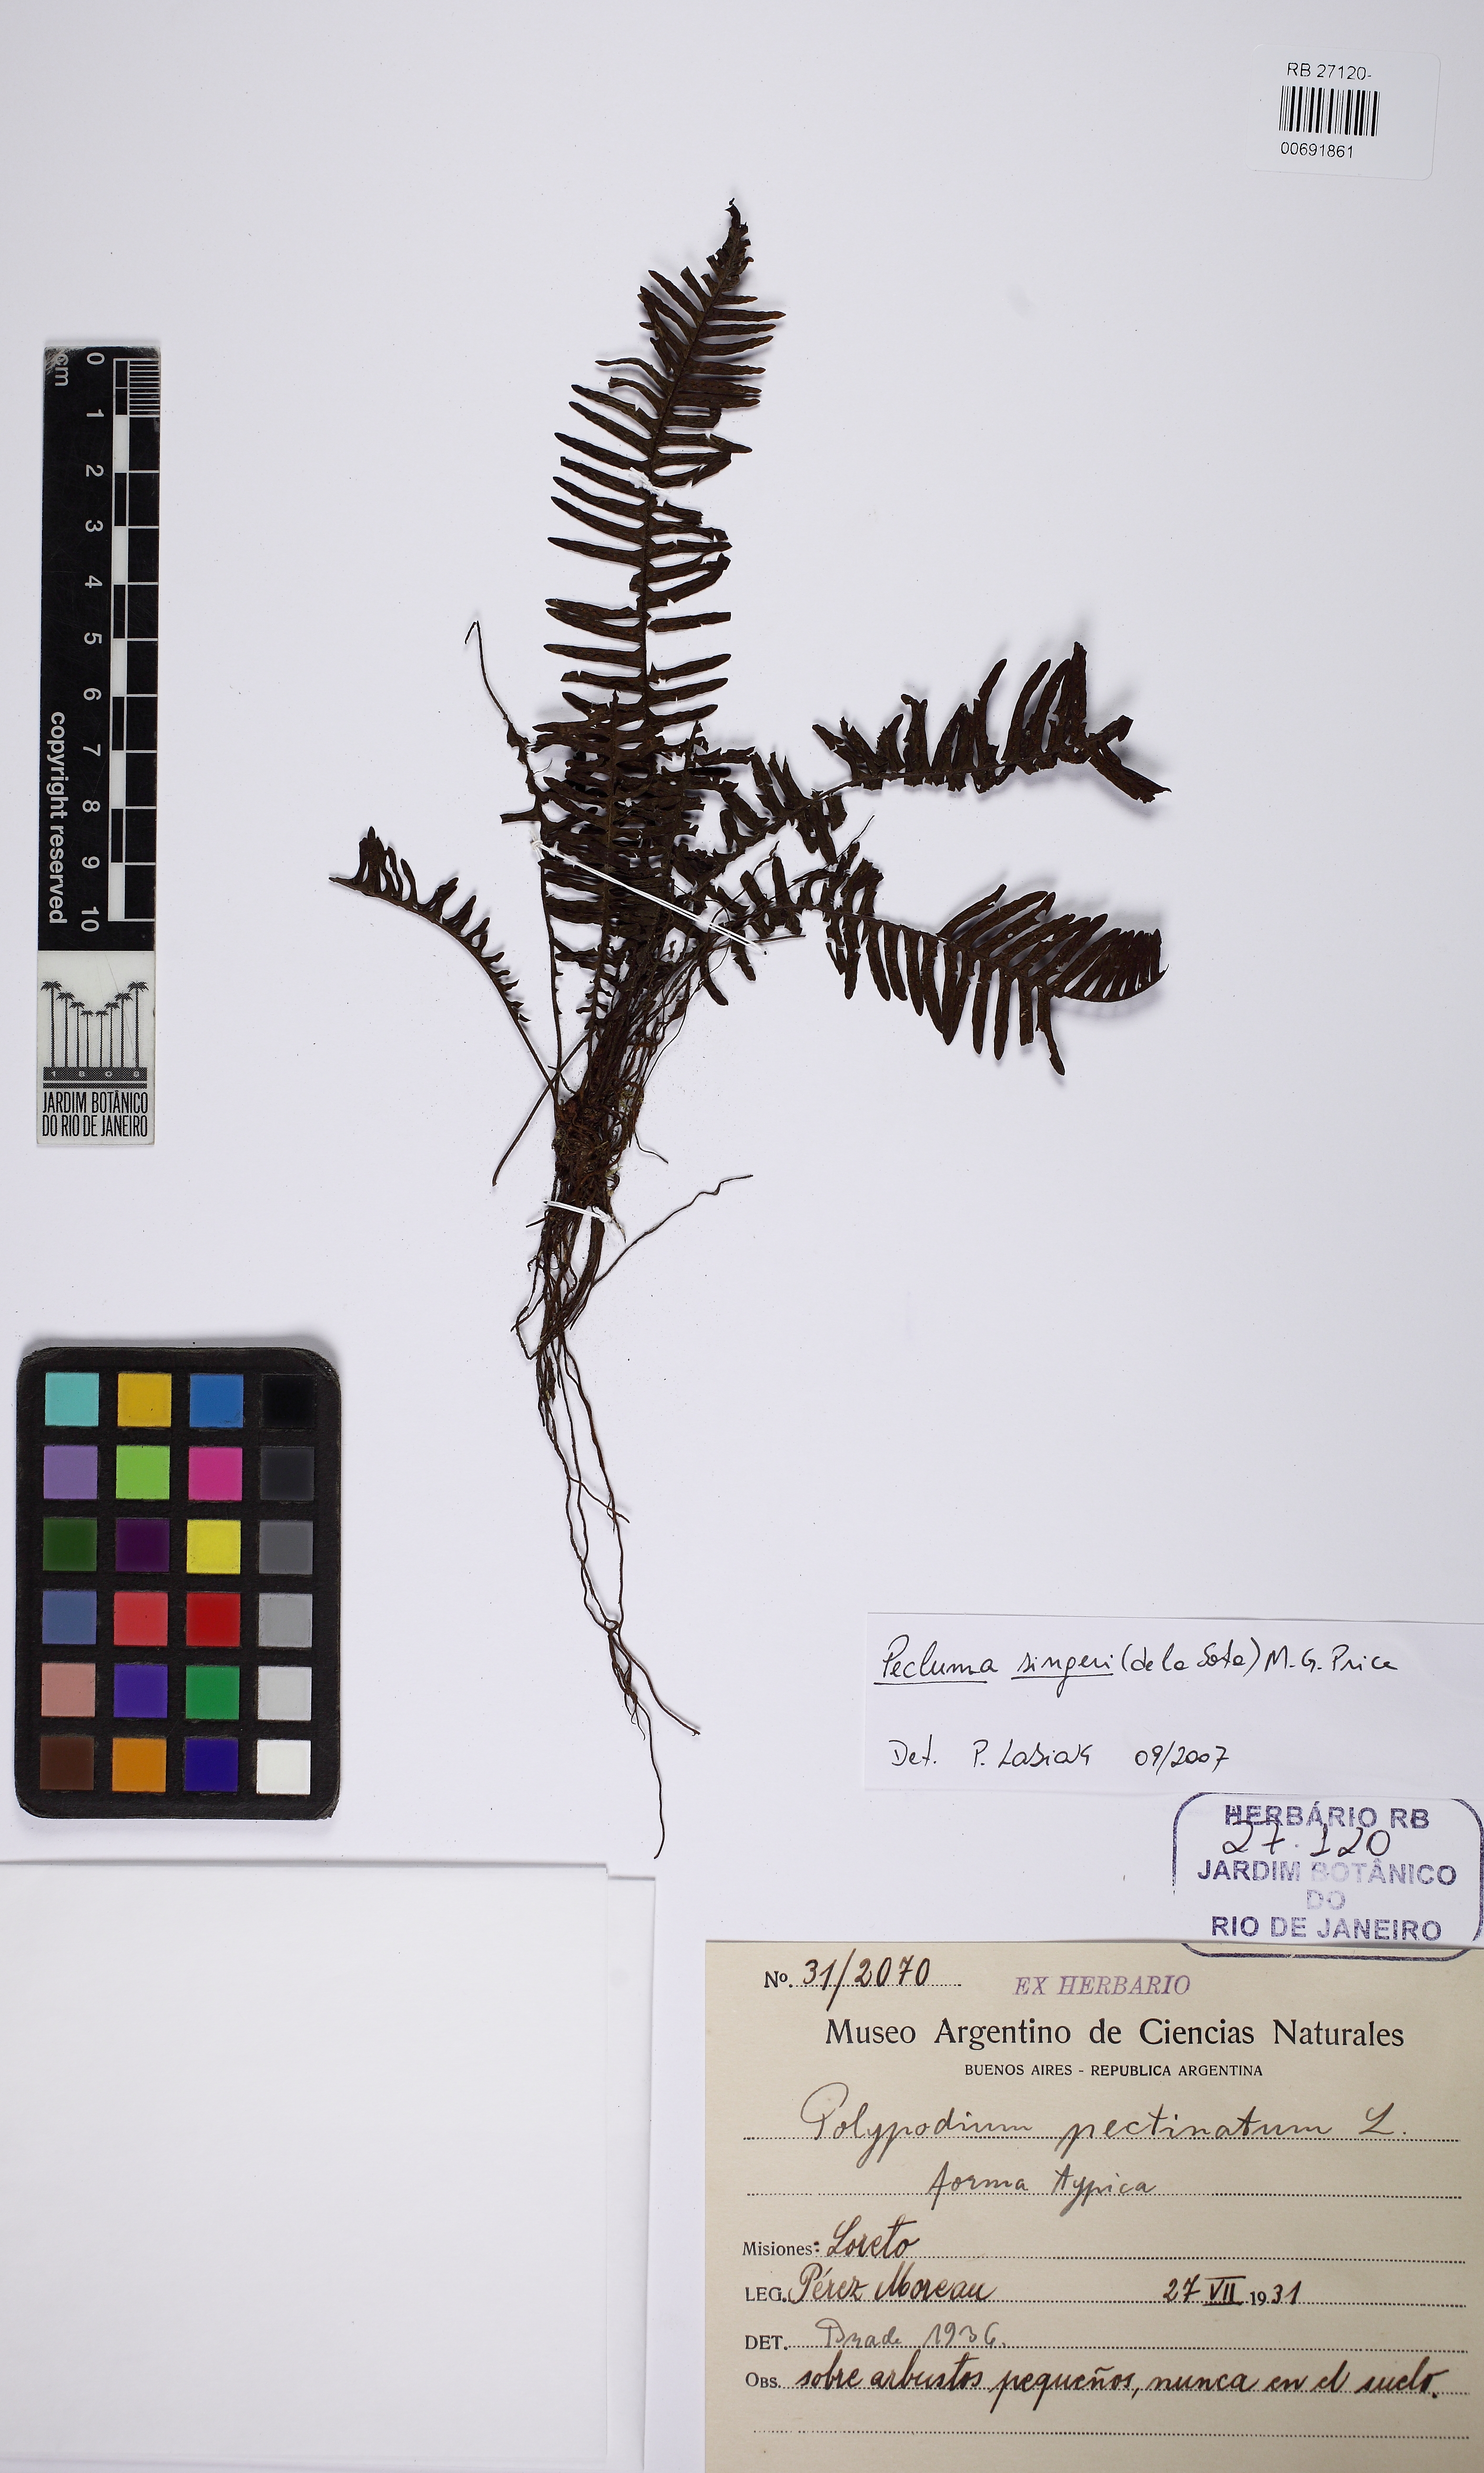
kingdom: Plantae
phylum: Tracheophyta
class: Polypodiopsida
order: Polypodiales
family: Polypodiaceae
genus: Pecluma
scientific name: Pecluma singeri
